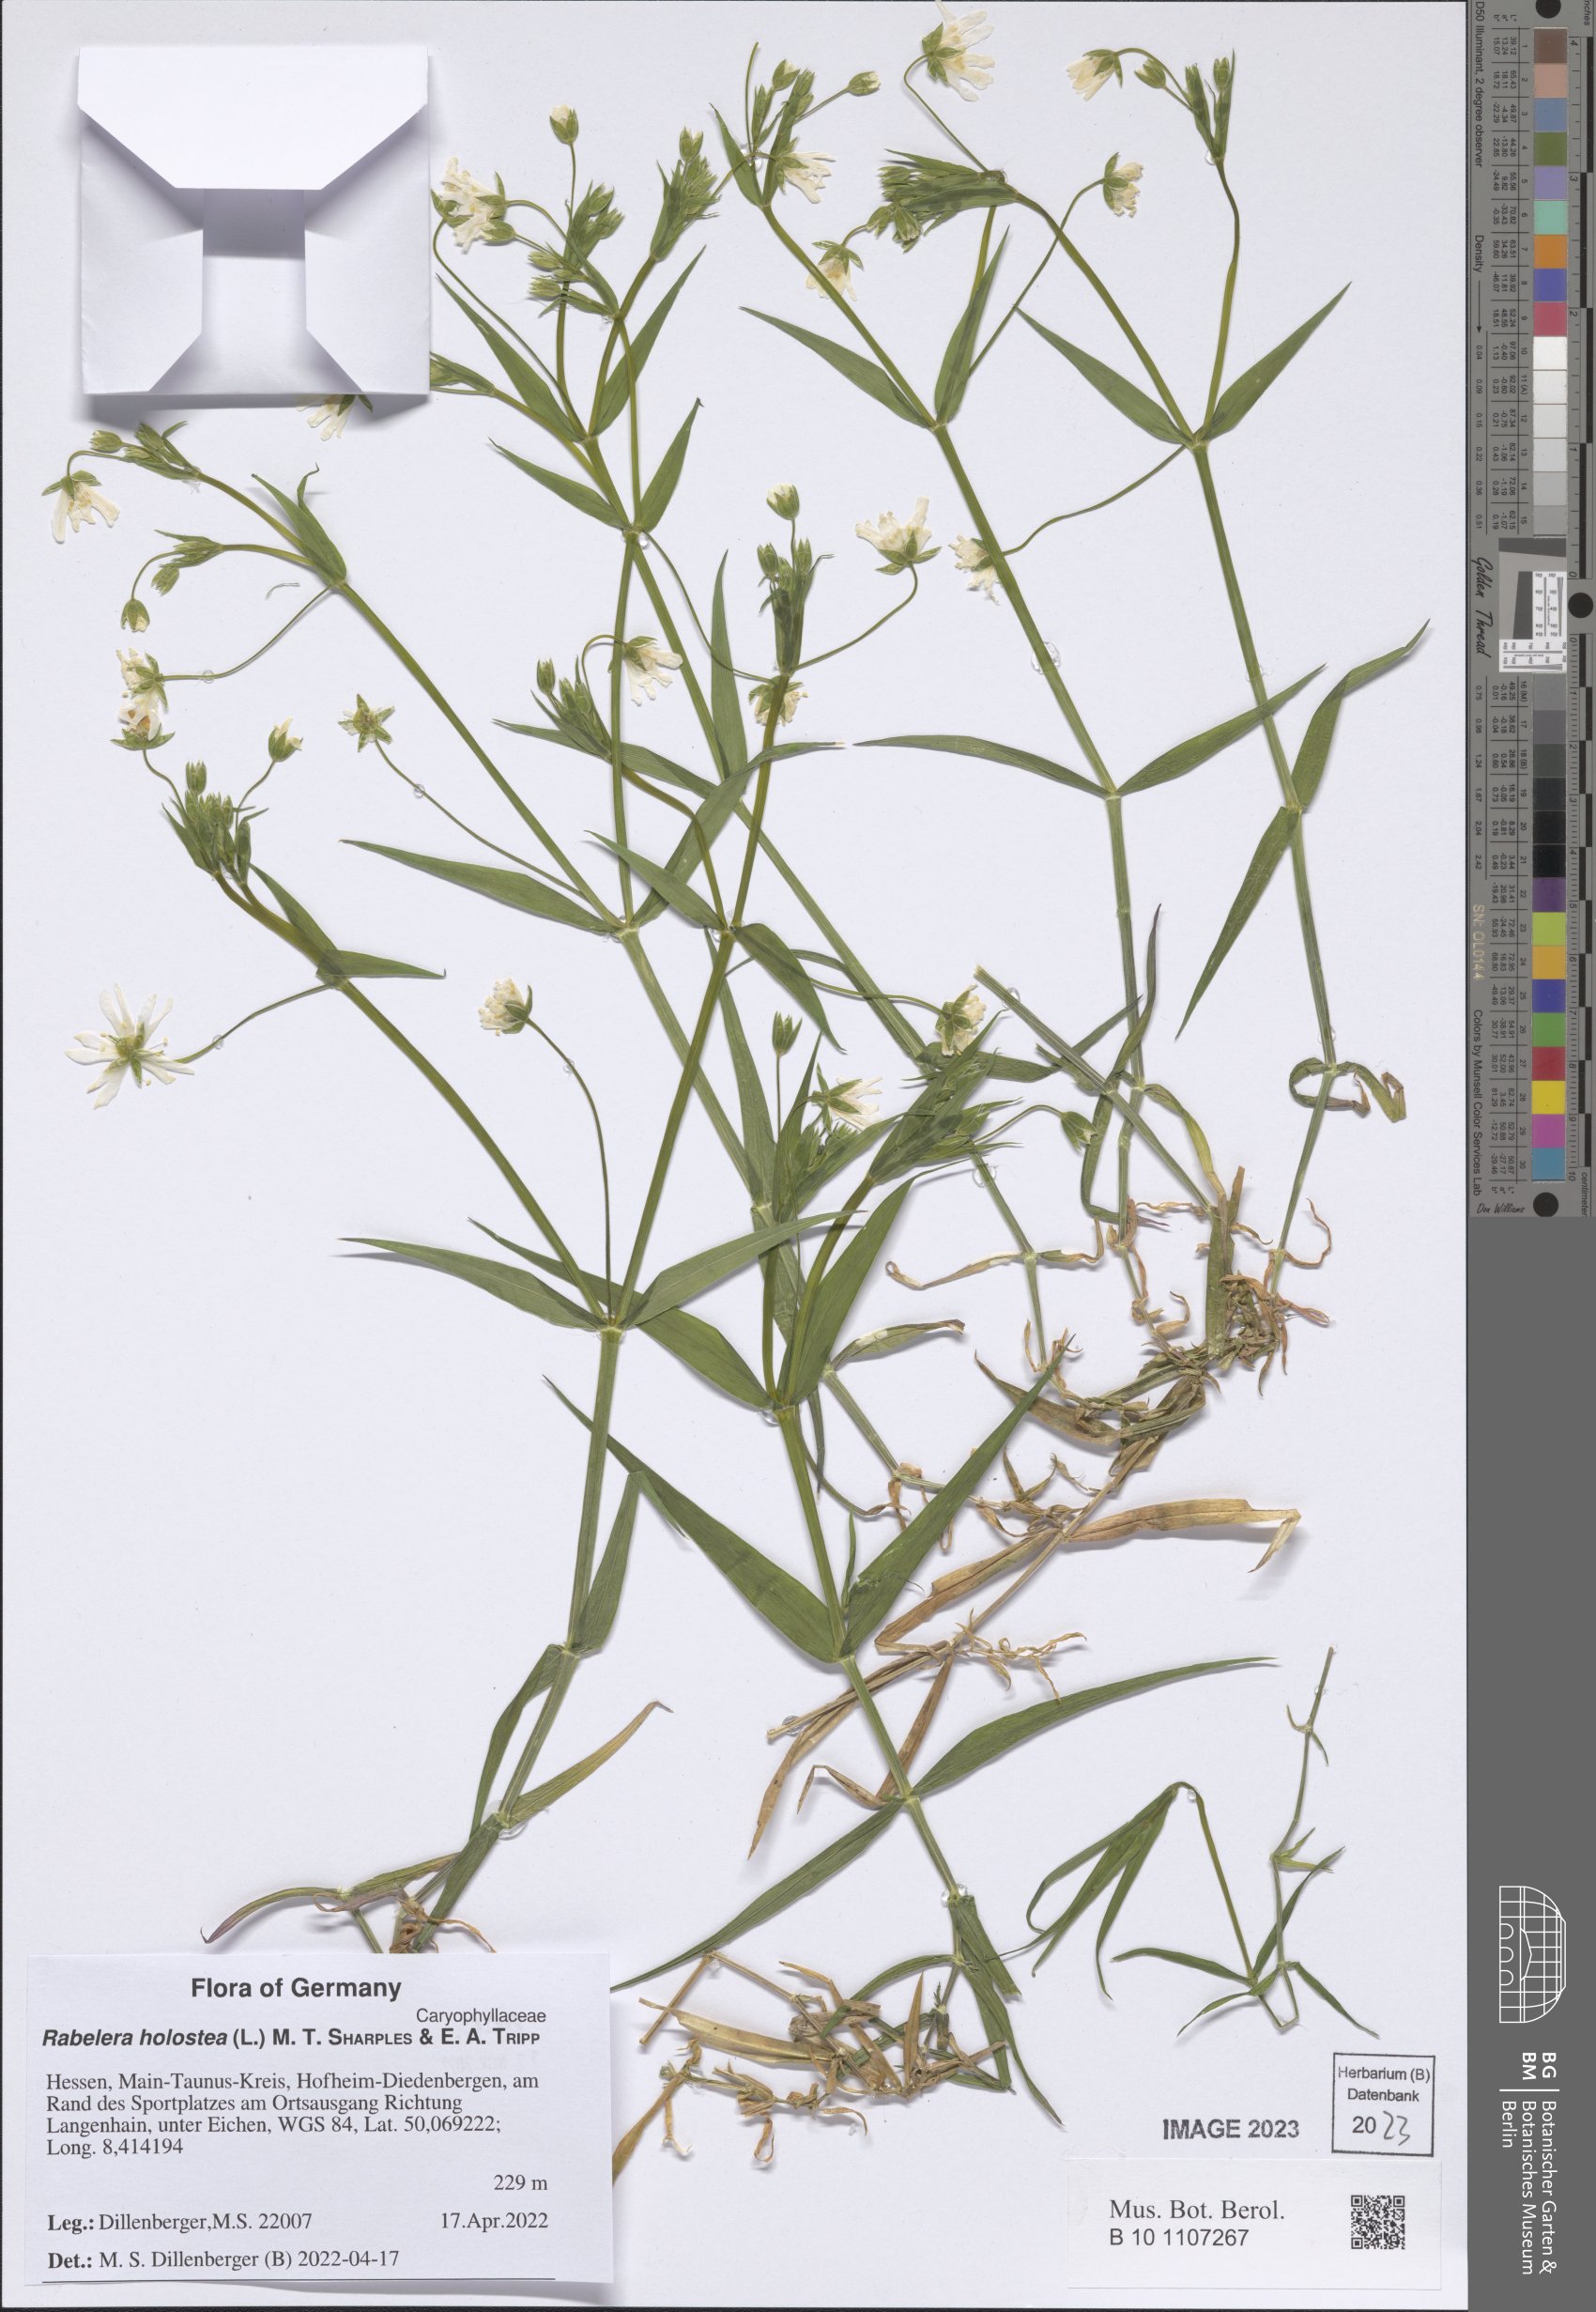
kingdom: Plantae
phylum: Tracheophyta
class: Magnoliopsida
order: Caryophyllales
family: Caryophyllaceae
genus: Rabelera
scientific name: Rabelera holostea
